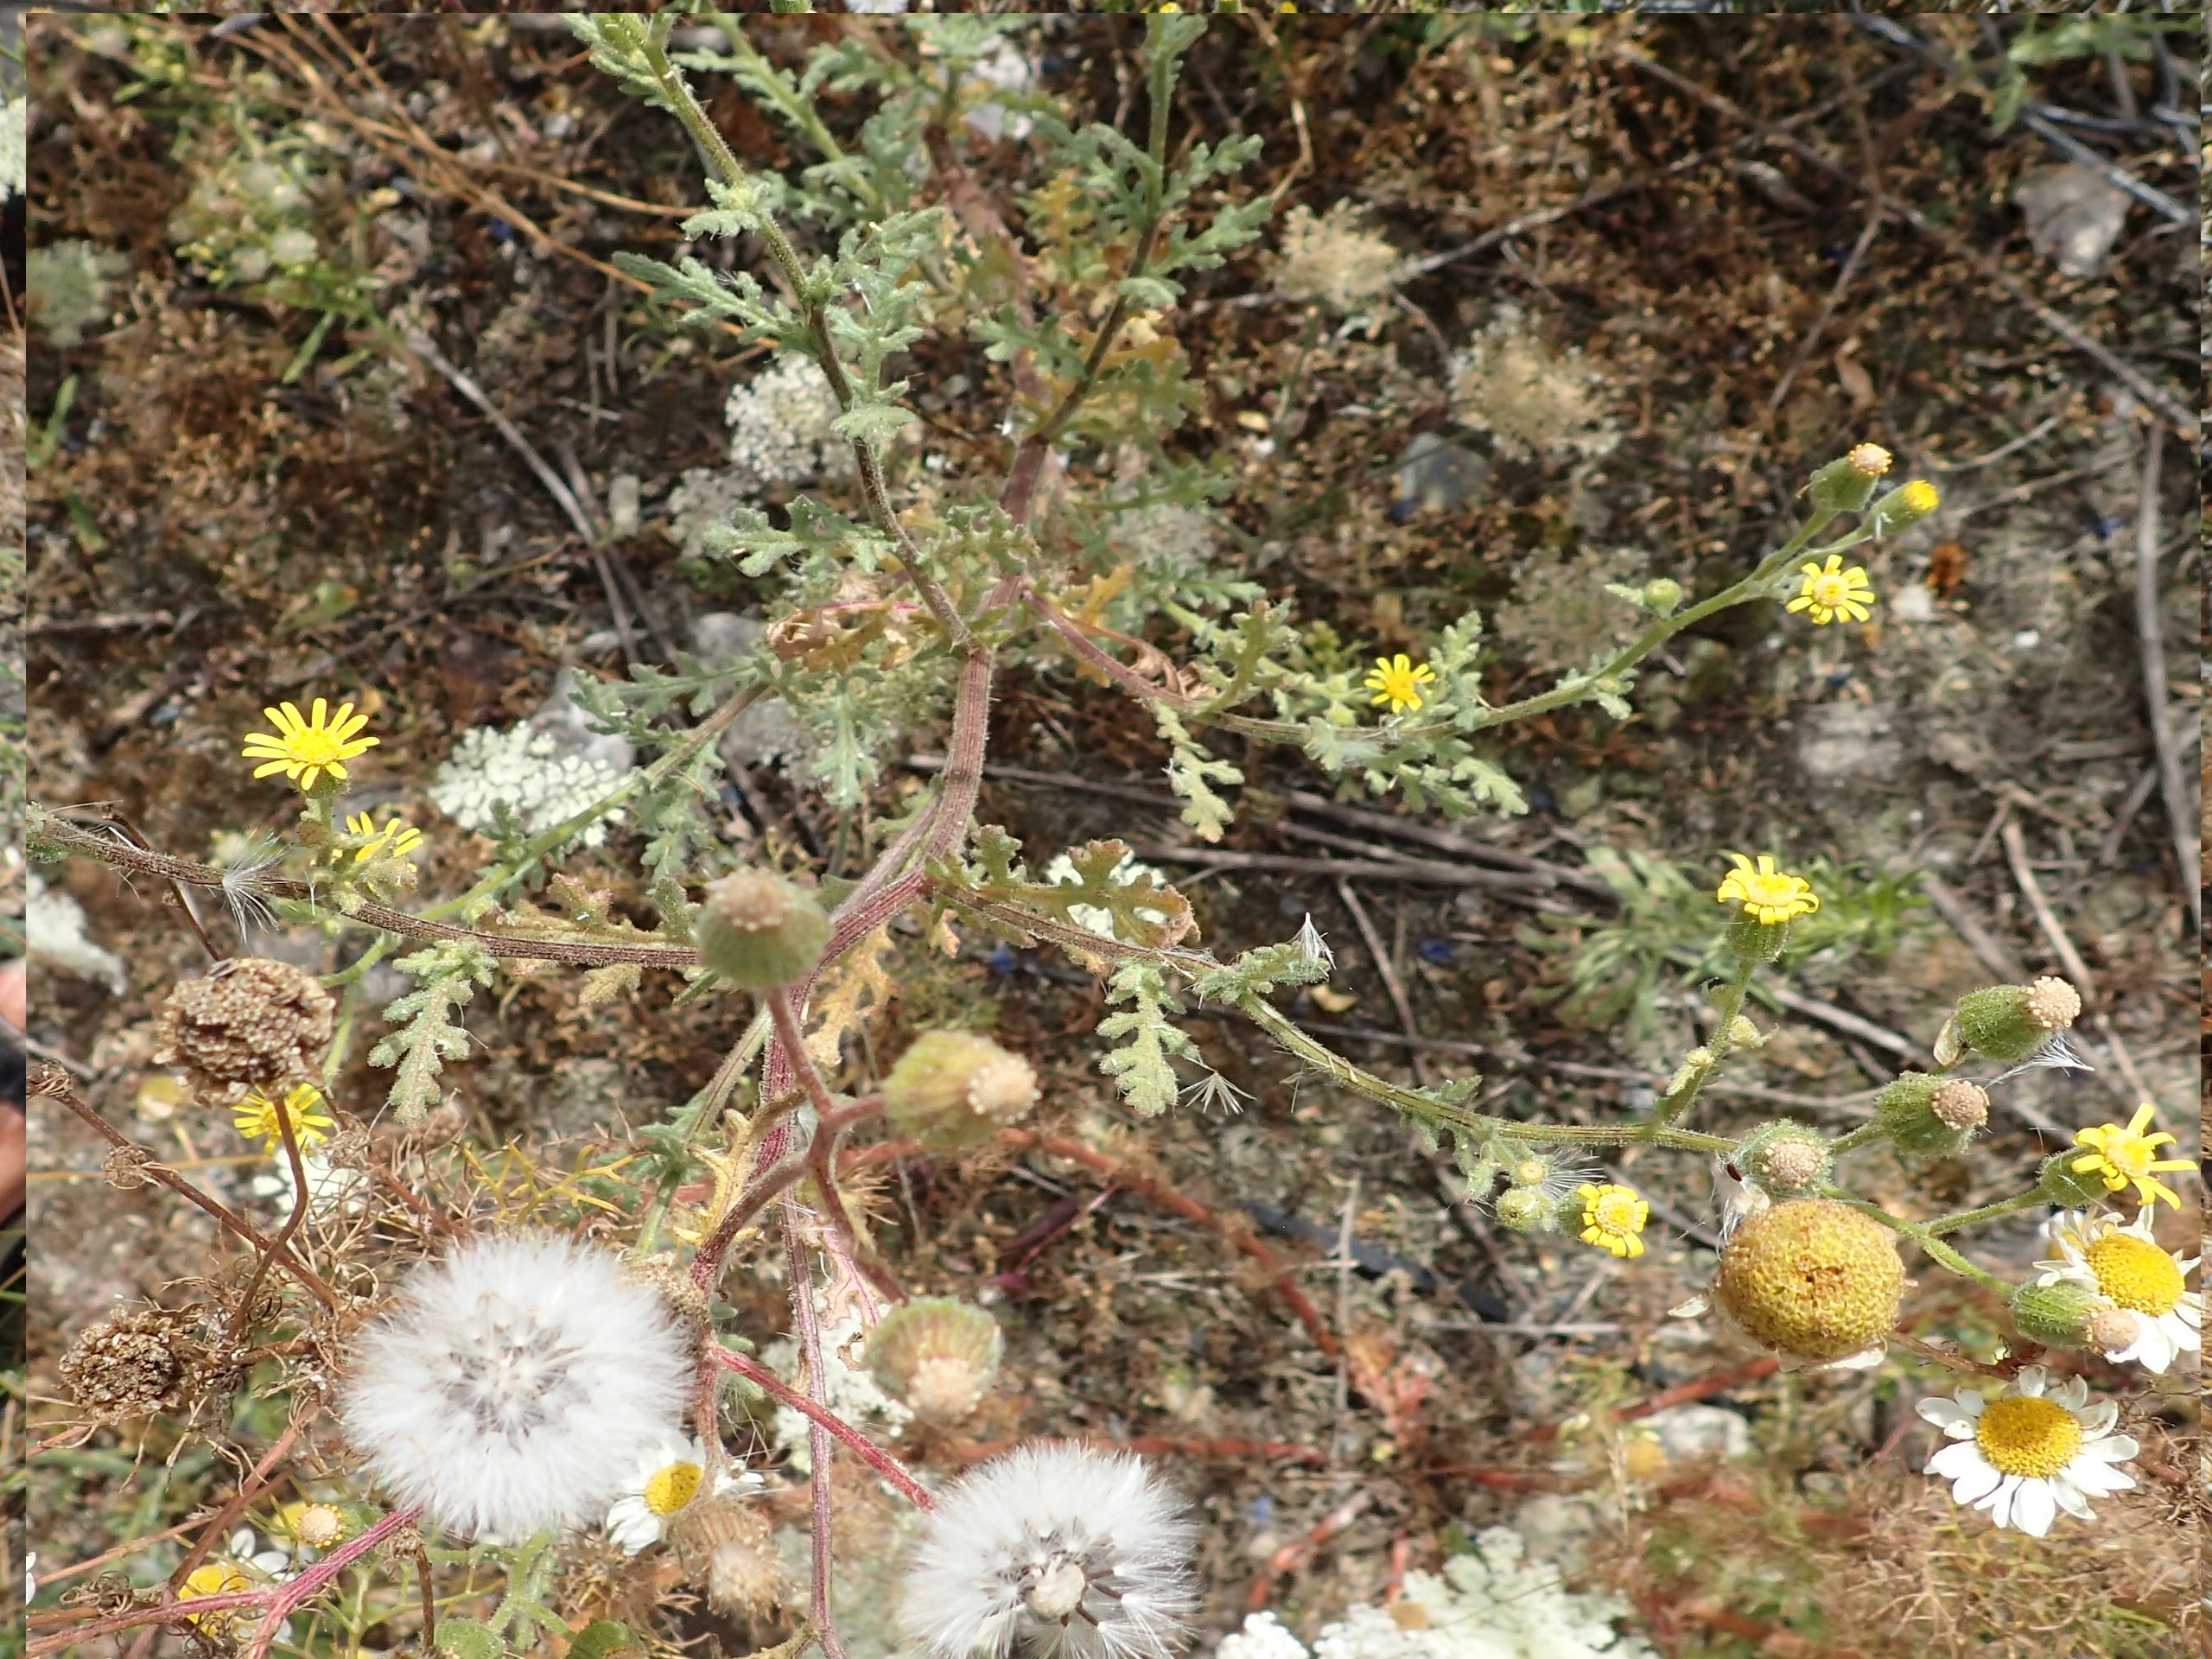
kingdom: Plantae
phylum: Tracheophyta
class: Magnoliopsida
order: Asterales
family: Asteraceae
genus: Senecio
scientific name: Senecio viscosus
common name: Klæbrig brandbæger
